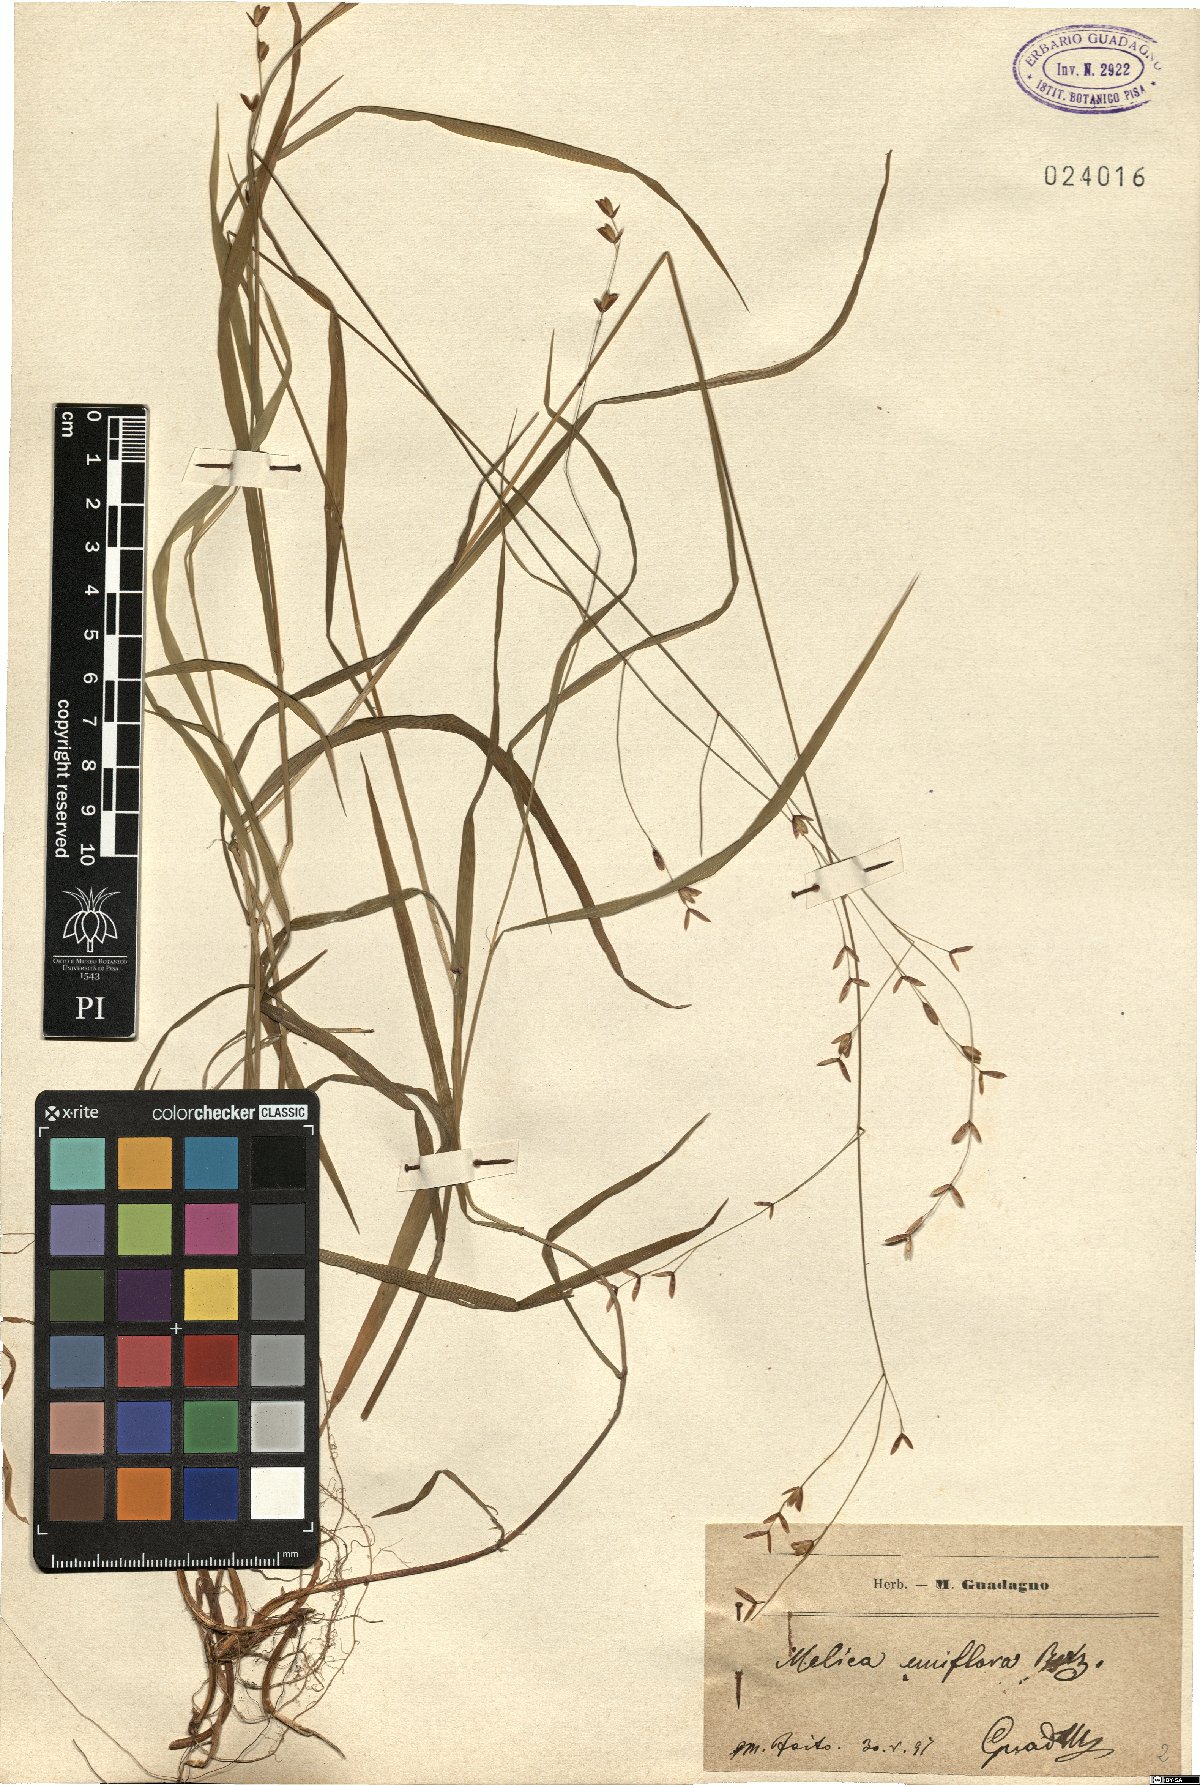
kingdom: Plantae
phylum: Tracheophyta
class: Liliopsida
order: Poales
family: Poaceae
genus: Melica
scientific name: Melica uniflora
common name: Wood melick
